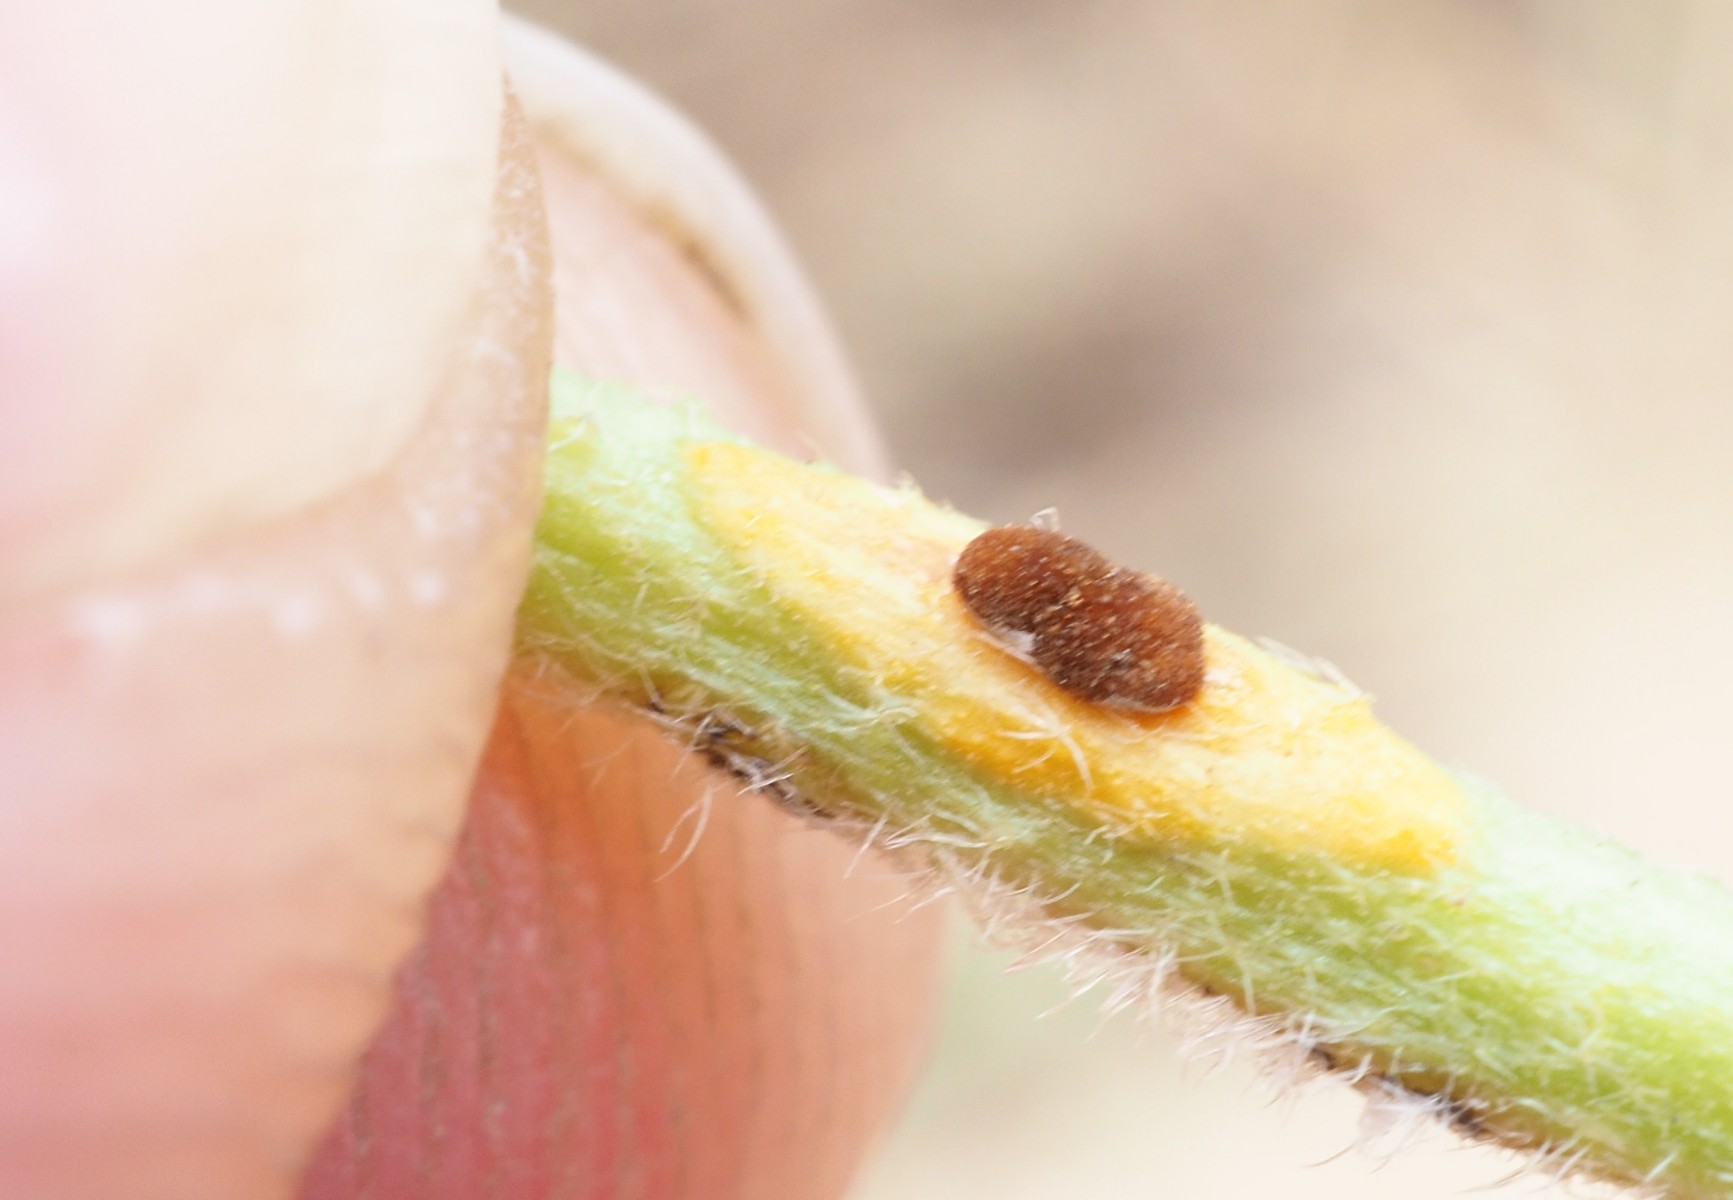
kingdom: Fungi
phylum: Basidiomycota
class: Pucciniomycetes
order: Pucciniales
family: Pucciniaceae
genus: Puccinia
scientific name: Puccinia malvacearum
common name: stokrose-tvecellerust
